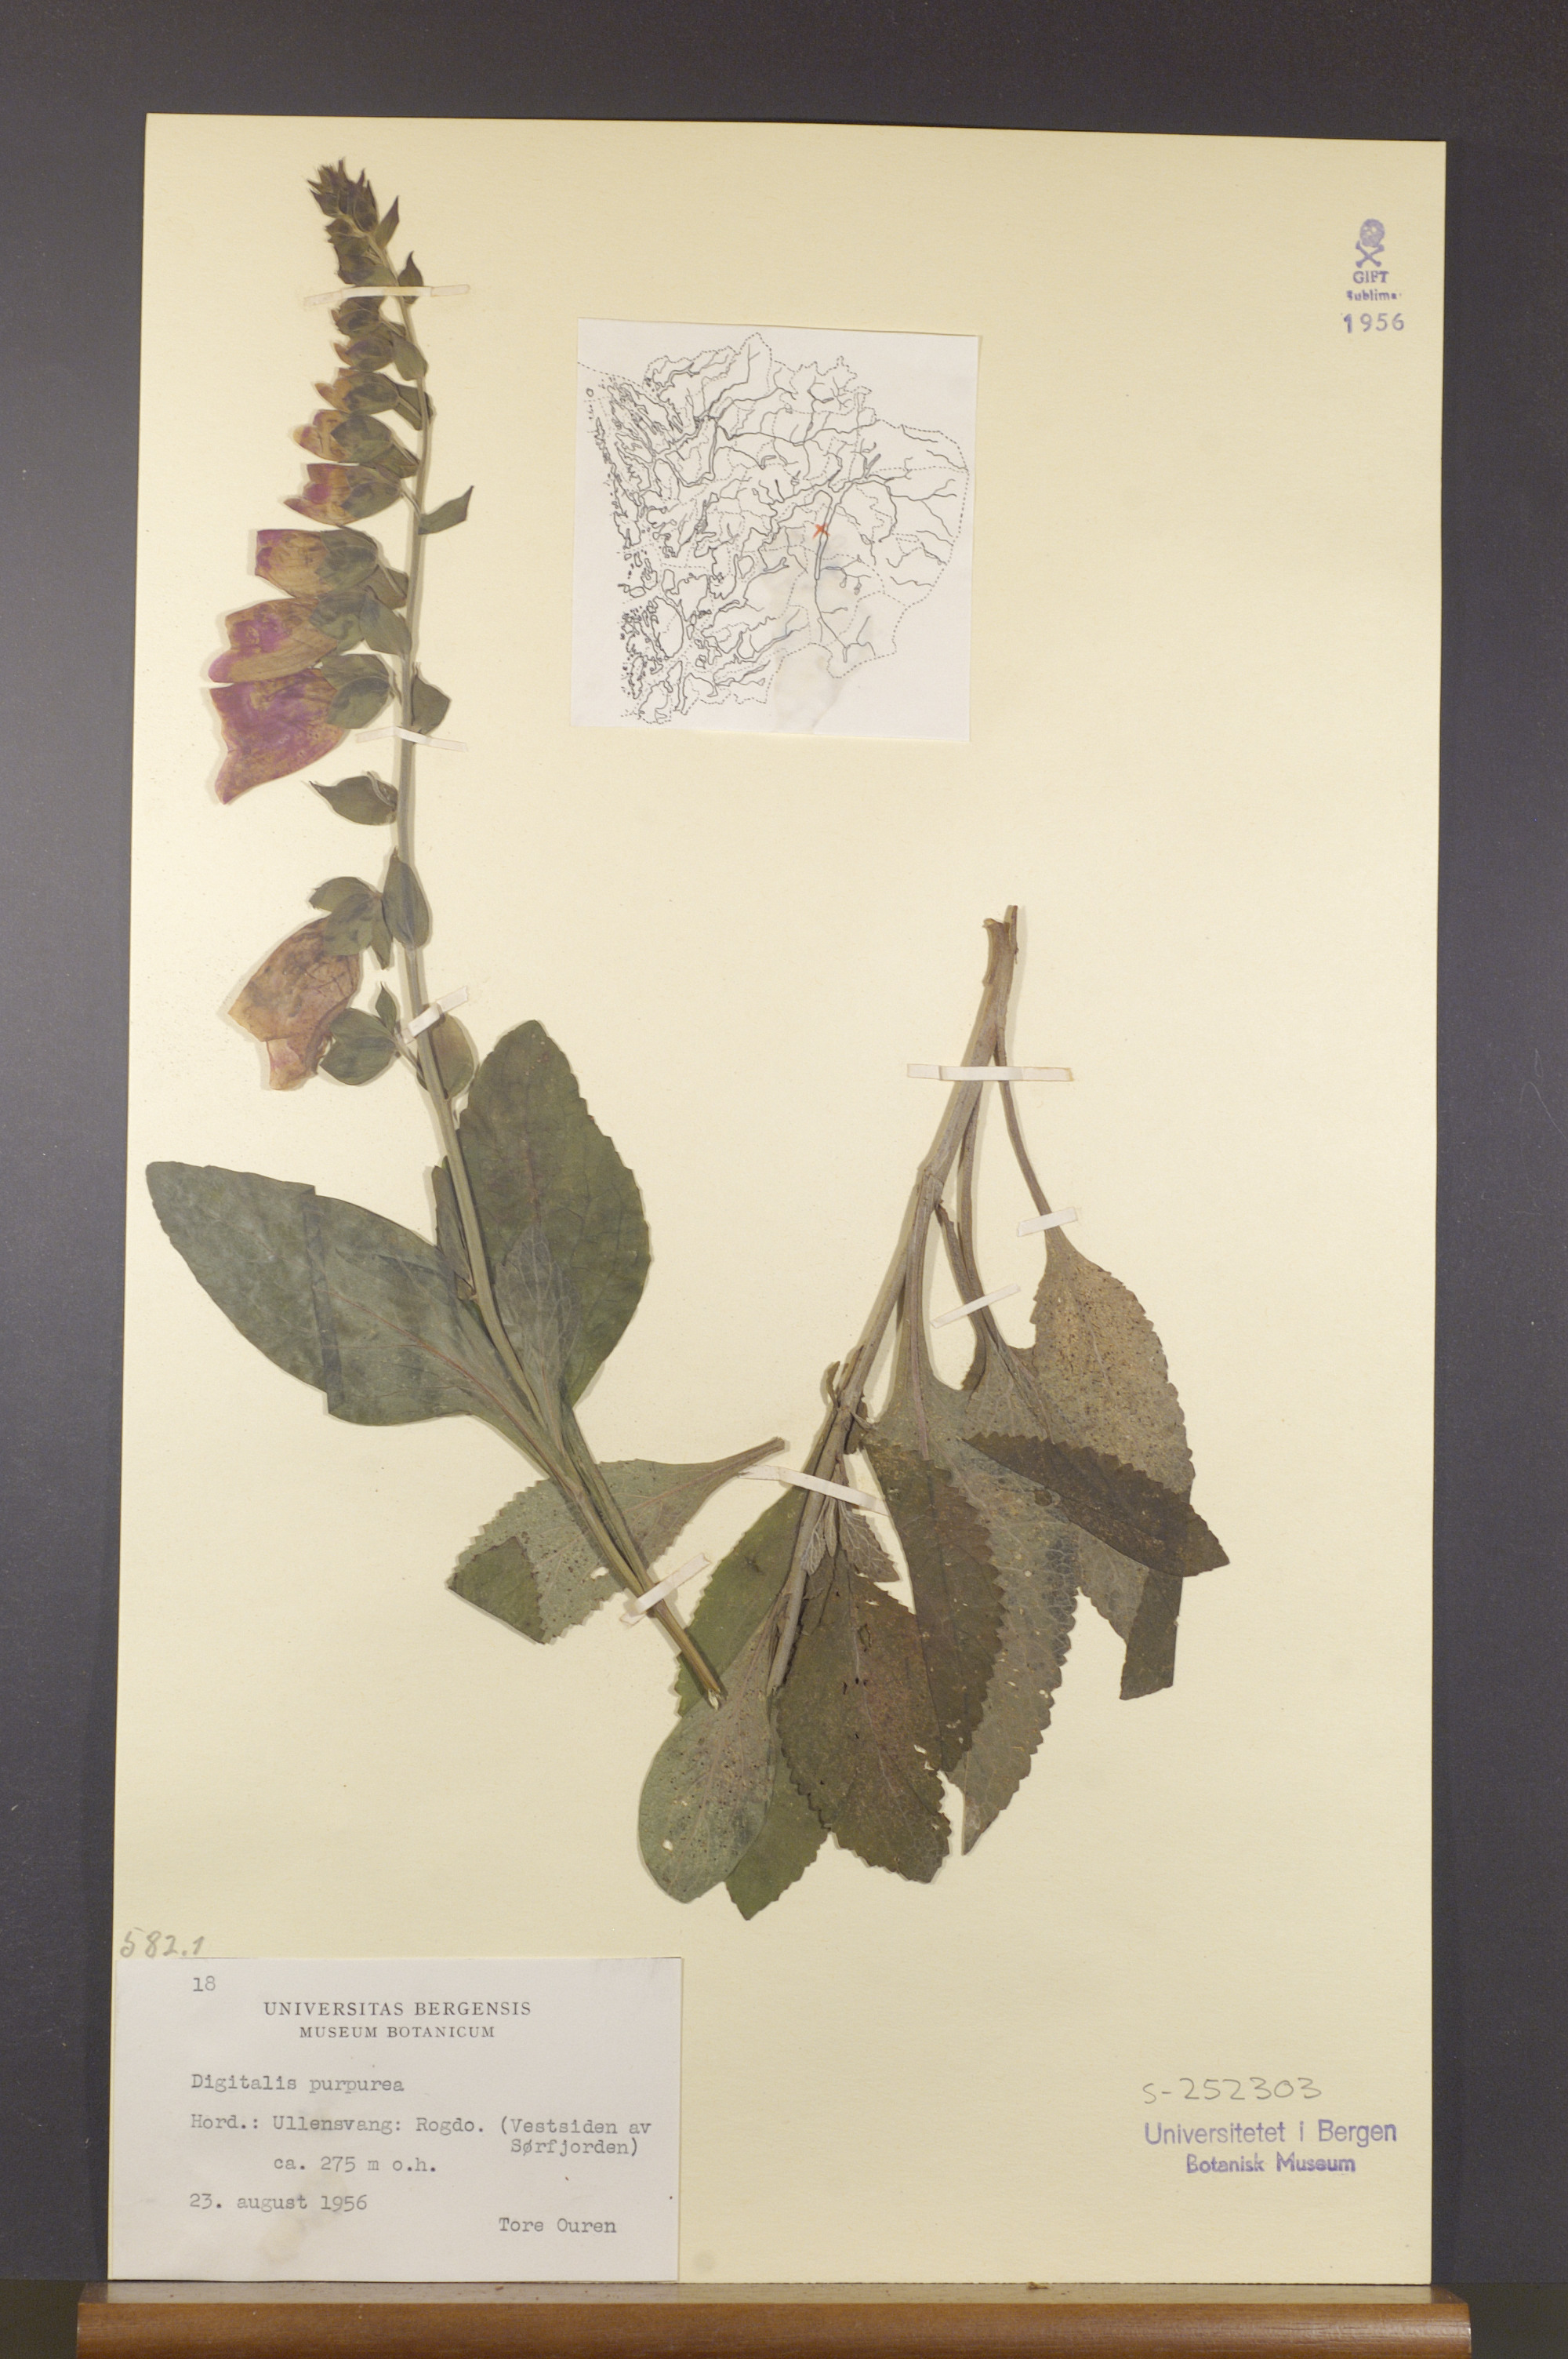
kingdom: Plantae
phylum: Tracheophyta
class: Magnoliopsida
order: Lamiales
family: Plantaginaceae
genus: Digitalis
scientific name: Digitalis purpurea
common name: Foxglove
